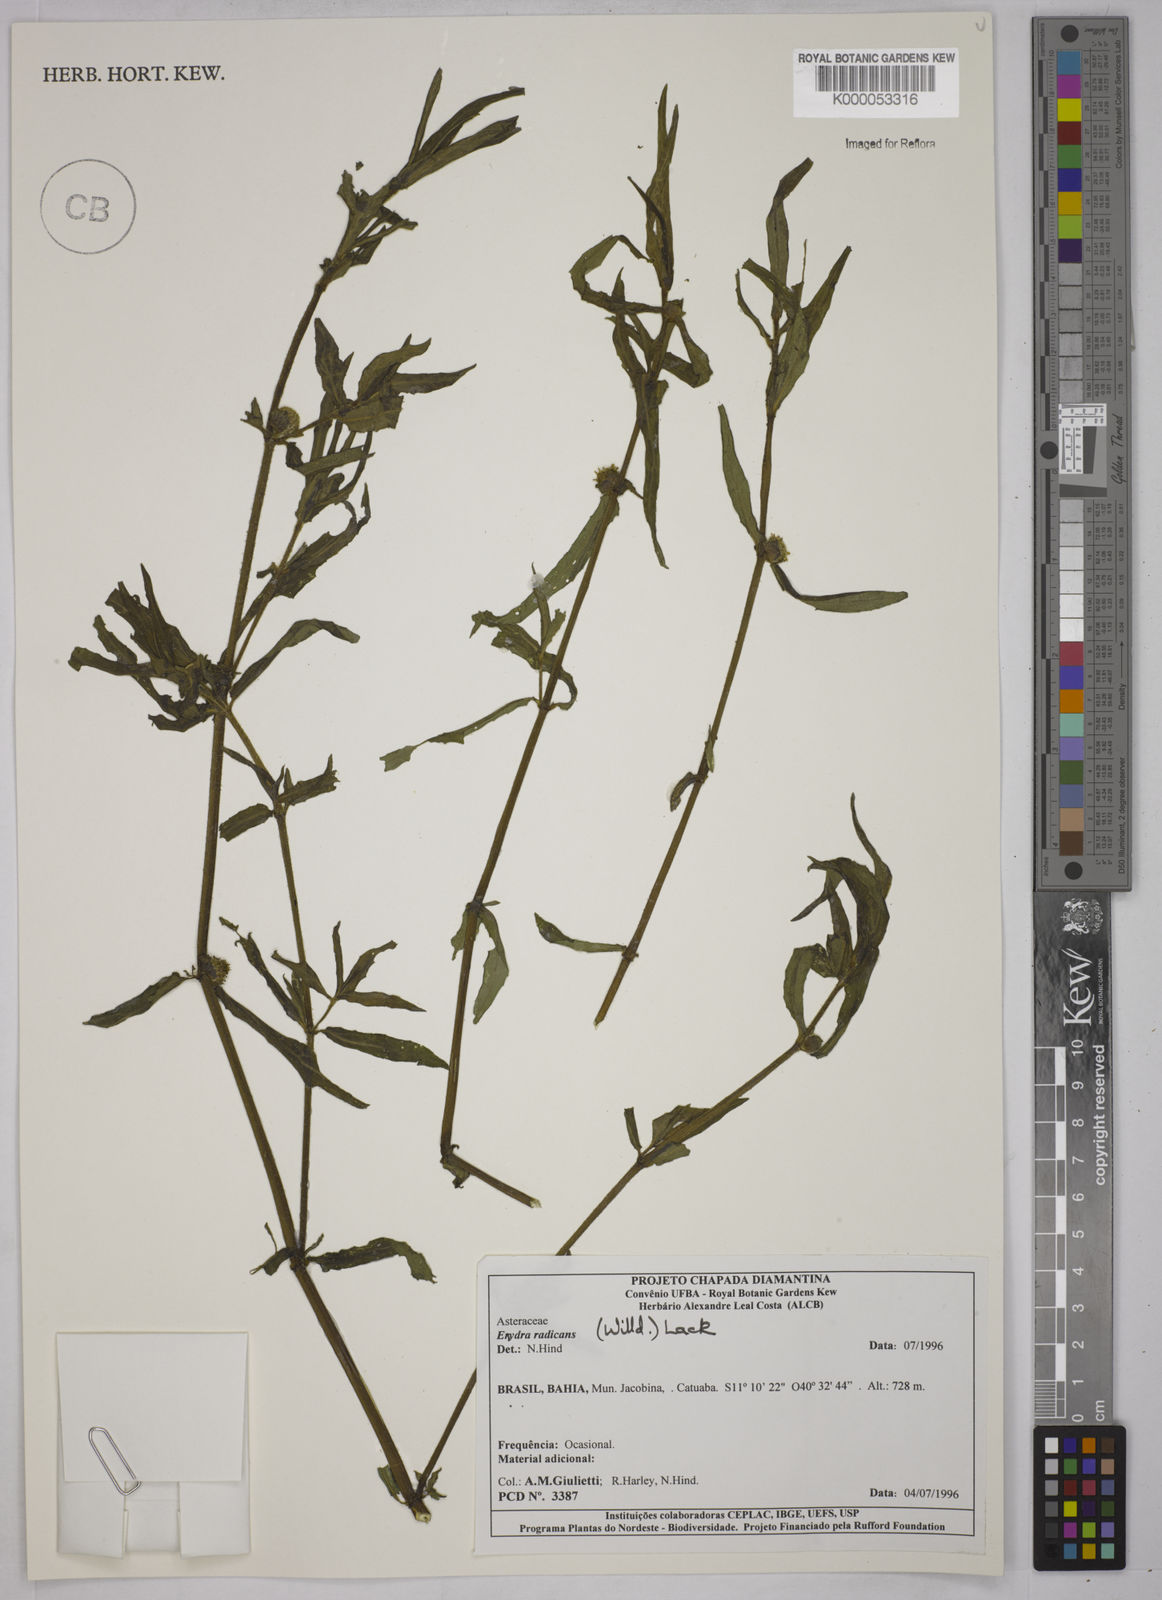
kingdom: Plantae
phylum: Tracheophyta
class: Magnoliopsida
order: Asterales
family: Asteraceae
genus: Enydra
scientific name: Enydra radicans
